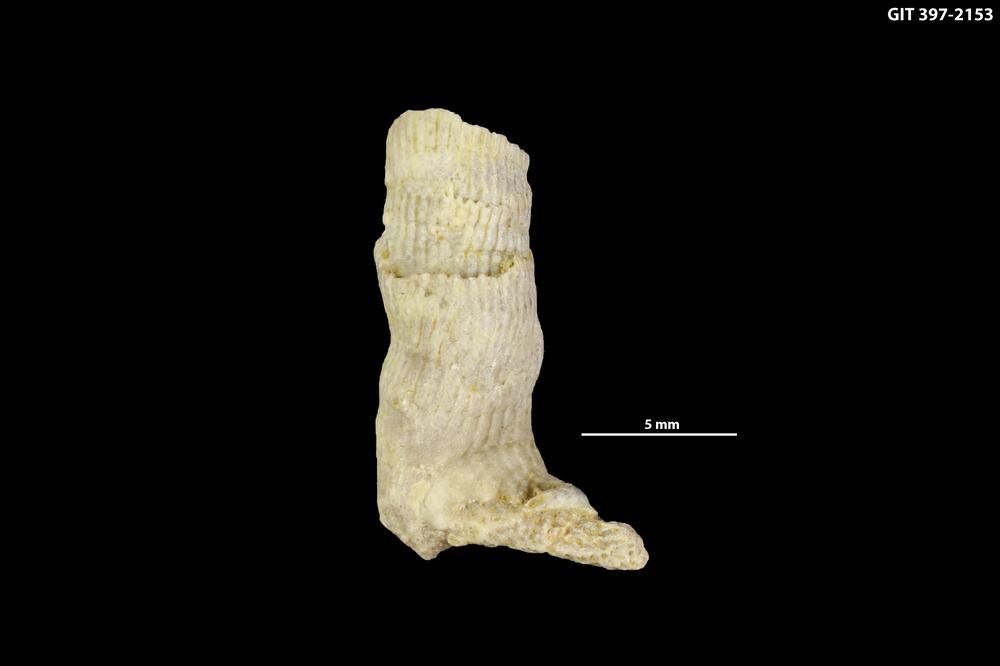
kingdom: Animalia
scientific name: Animalia
